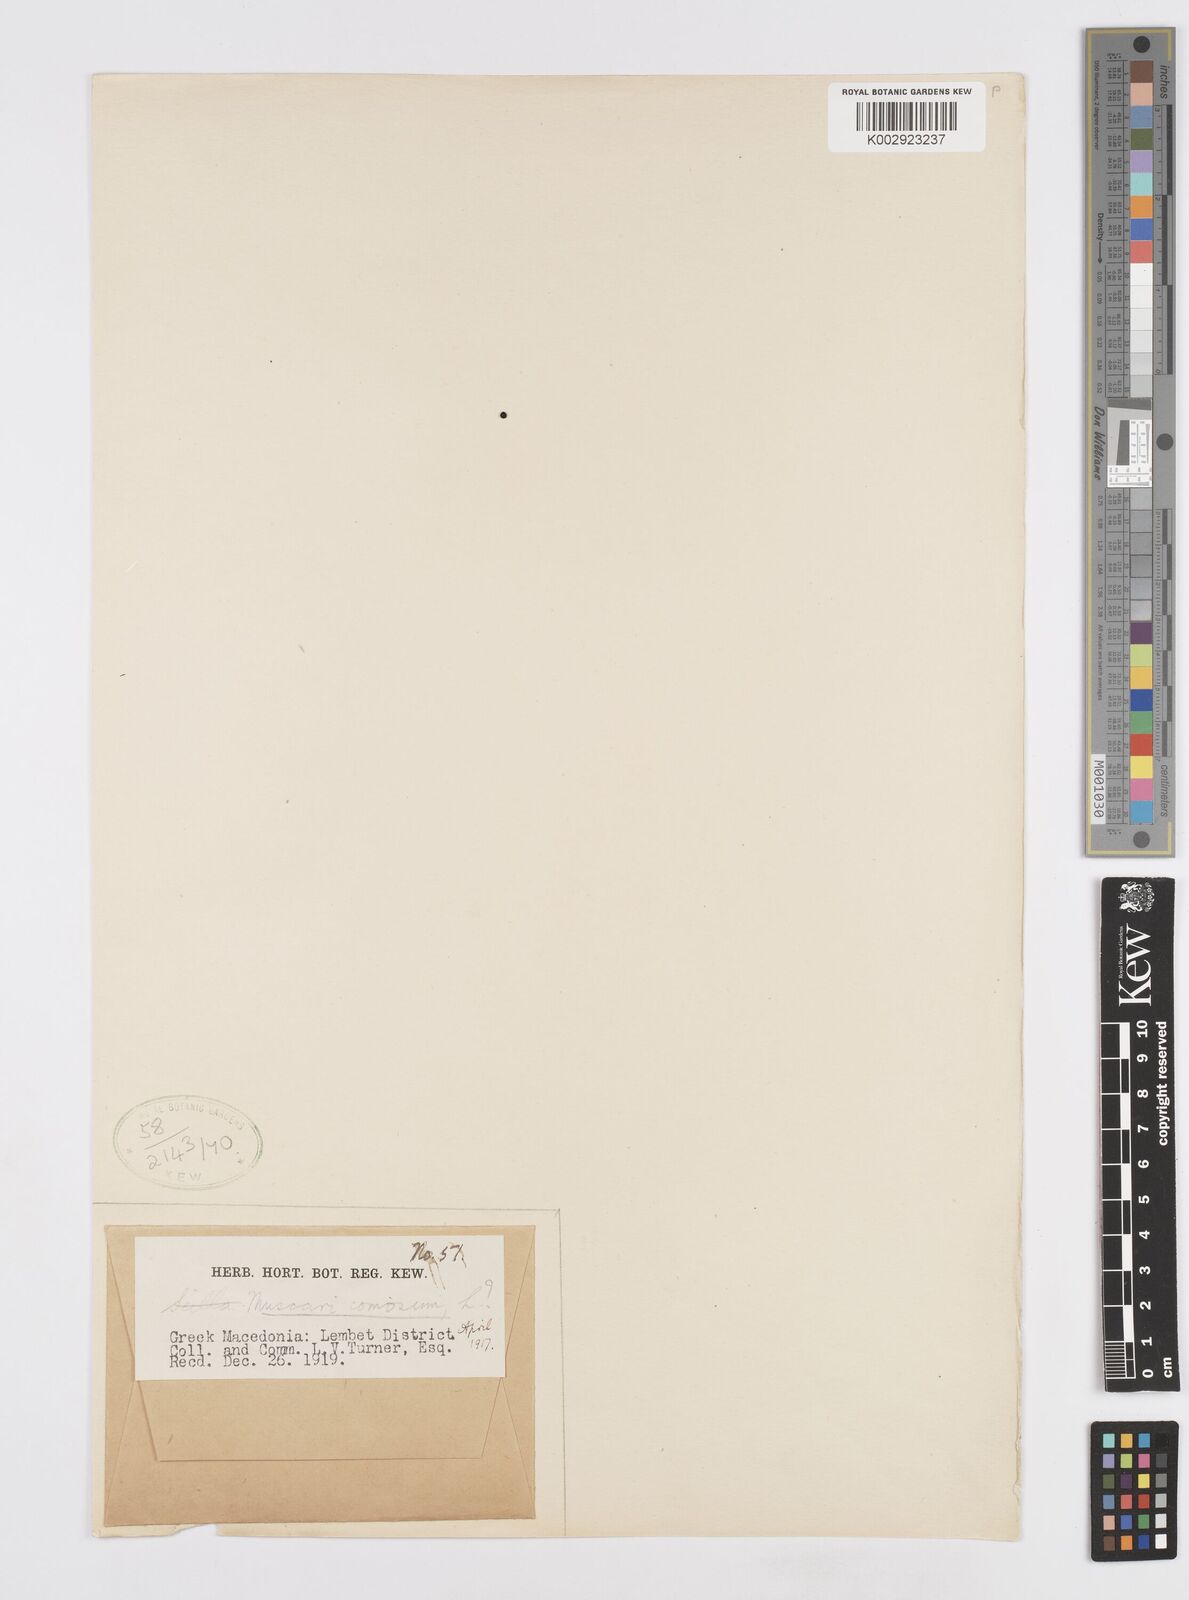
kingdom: Plantae
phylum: Tracheophyta
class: Liliopsida
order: Asparagales
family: Asparagaceae
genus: Muscari
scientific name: Muscari
